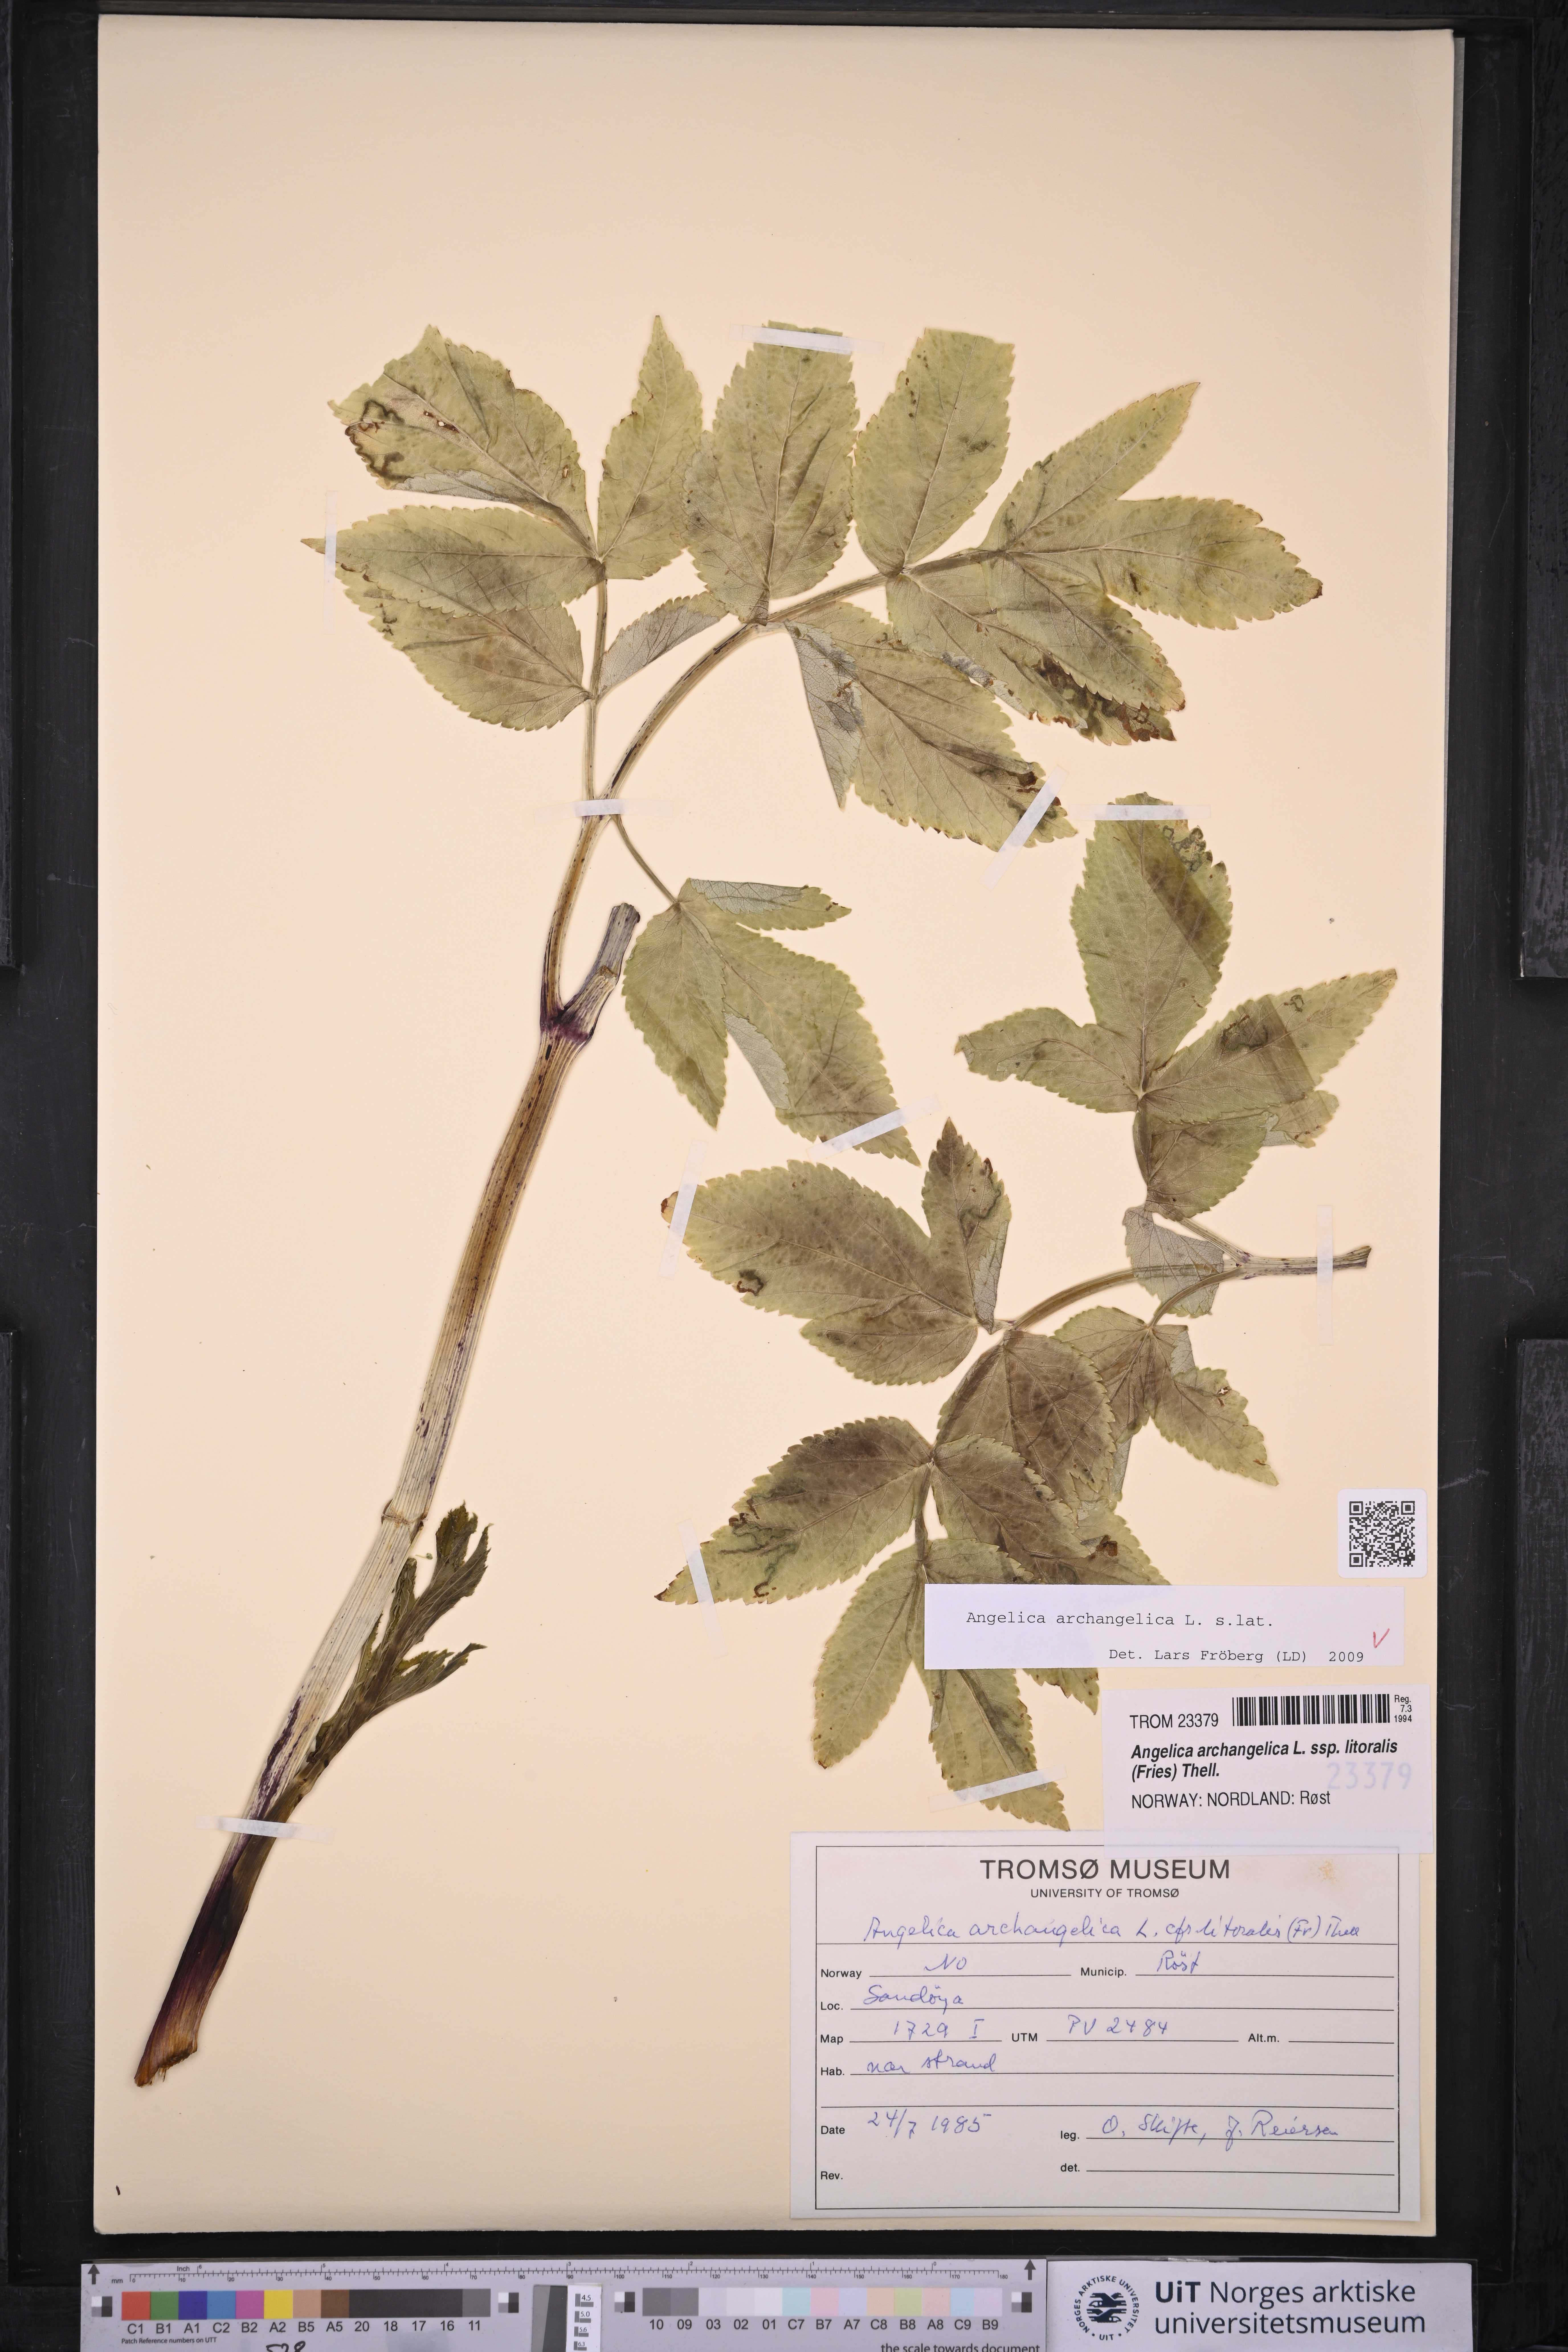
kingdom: Plantae
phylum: Tracheophyta
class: Magnoliopsida
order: Apiales
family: Apiaceae
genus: Angelica
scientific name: Angelica archangelica
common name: Garden angelica
